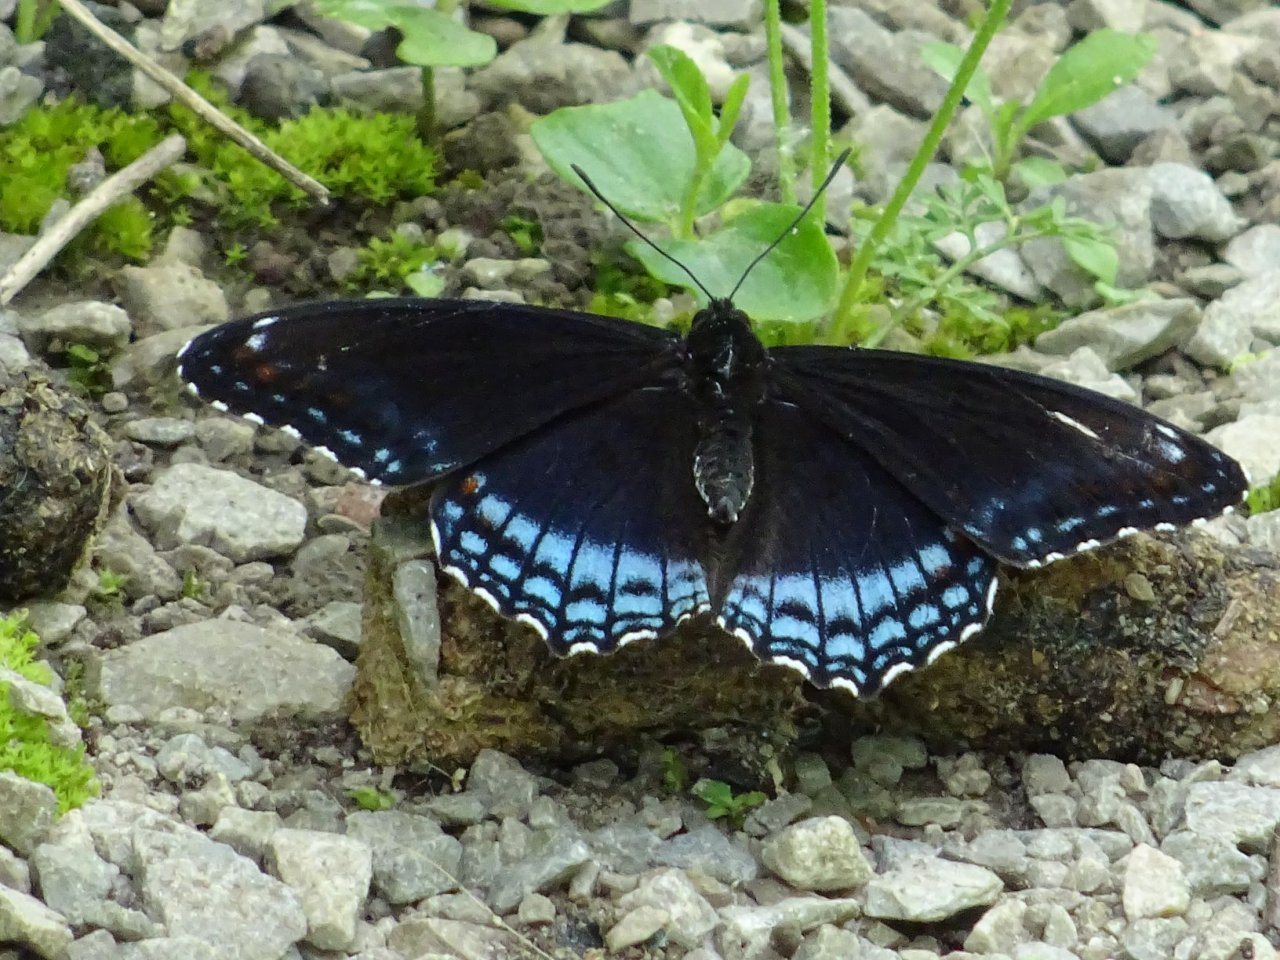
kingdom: Animalia
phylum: Arthropoda
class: Insecta
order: Lepidoptera
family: Nymphalidae
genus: Limenitis
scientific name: Limenitis astyanax
